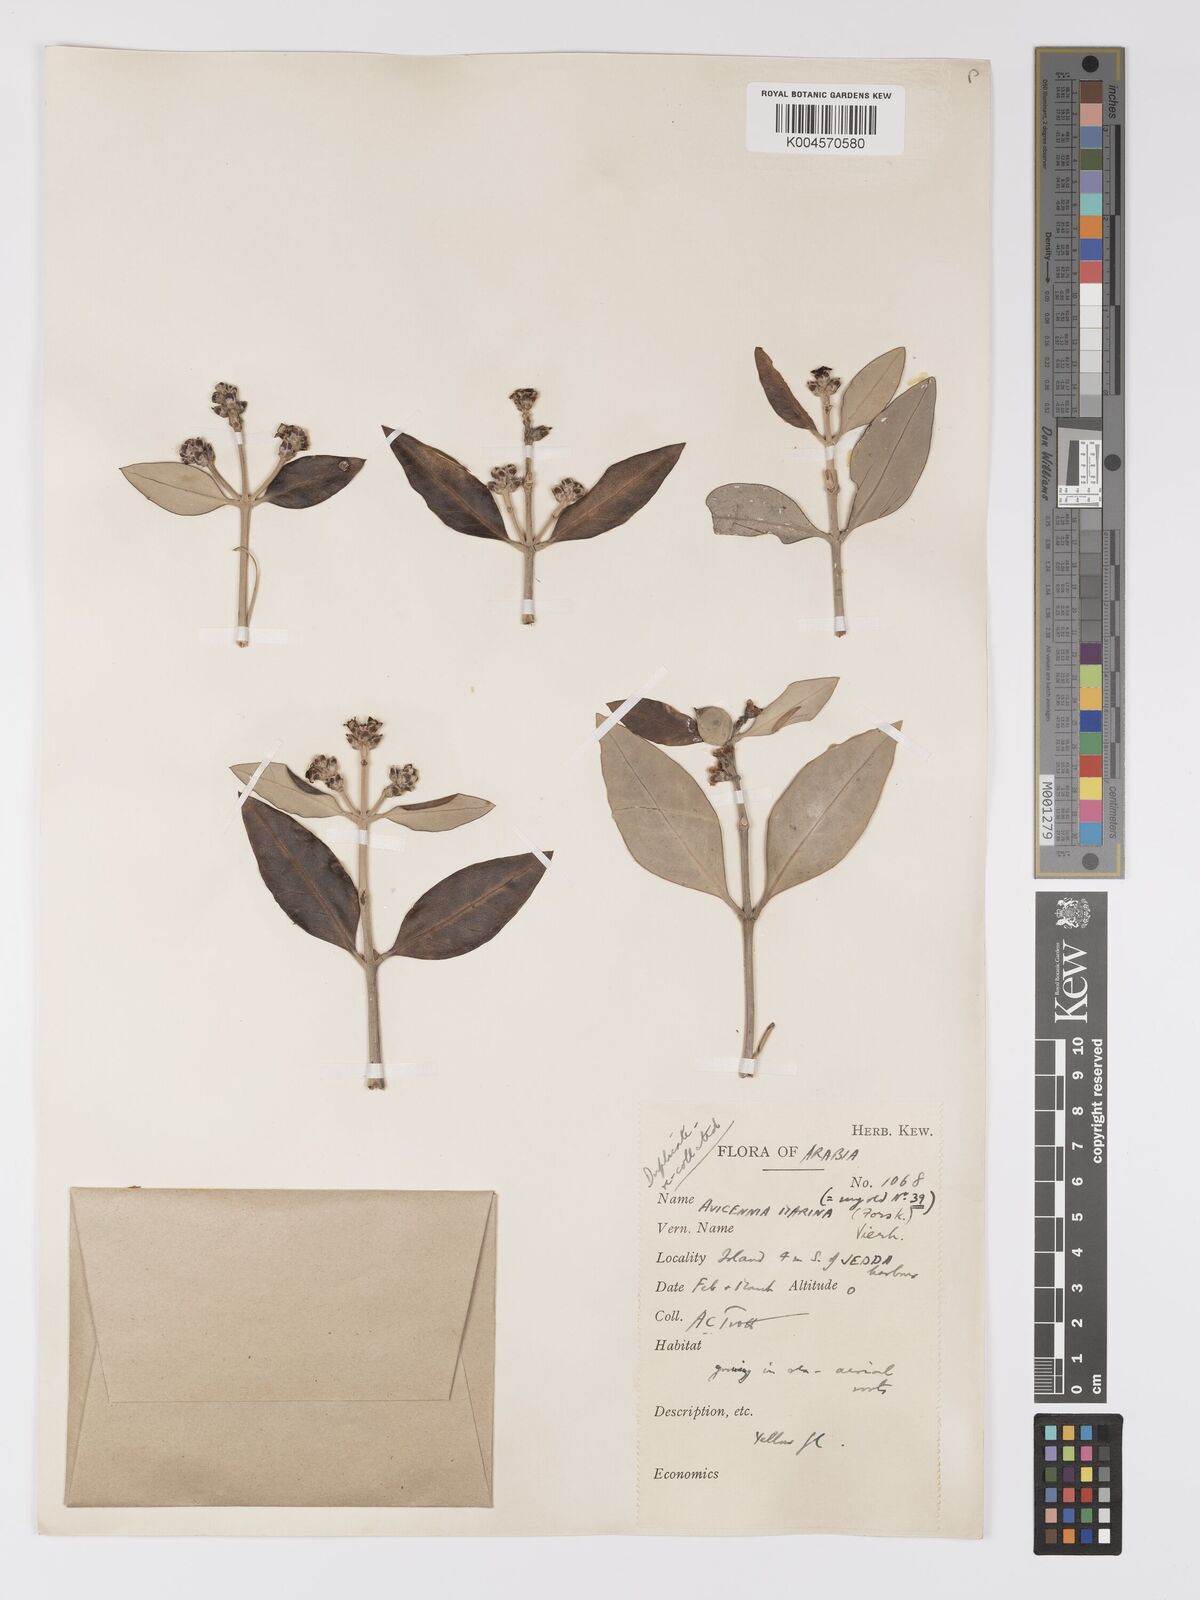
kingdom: Plantae
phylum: Tracheophyta
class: Magnoliopsida
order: Lamiales
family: Acanthaceae
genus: Avicennia
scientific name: Avicennia marina
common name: Gray mangrove
